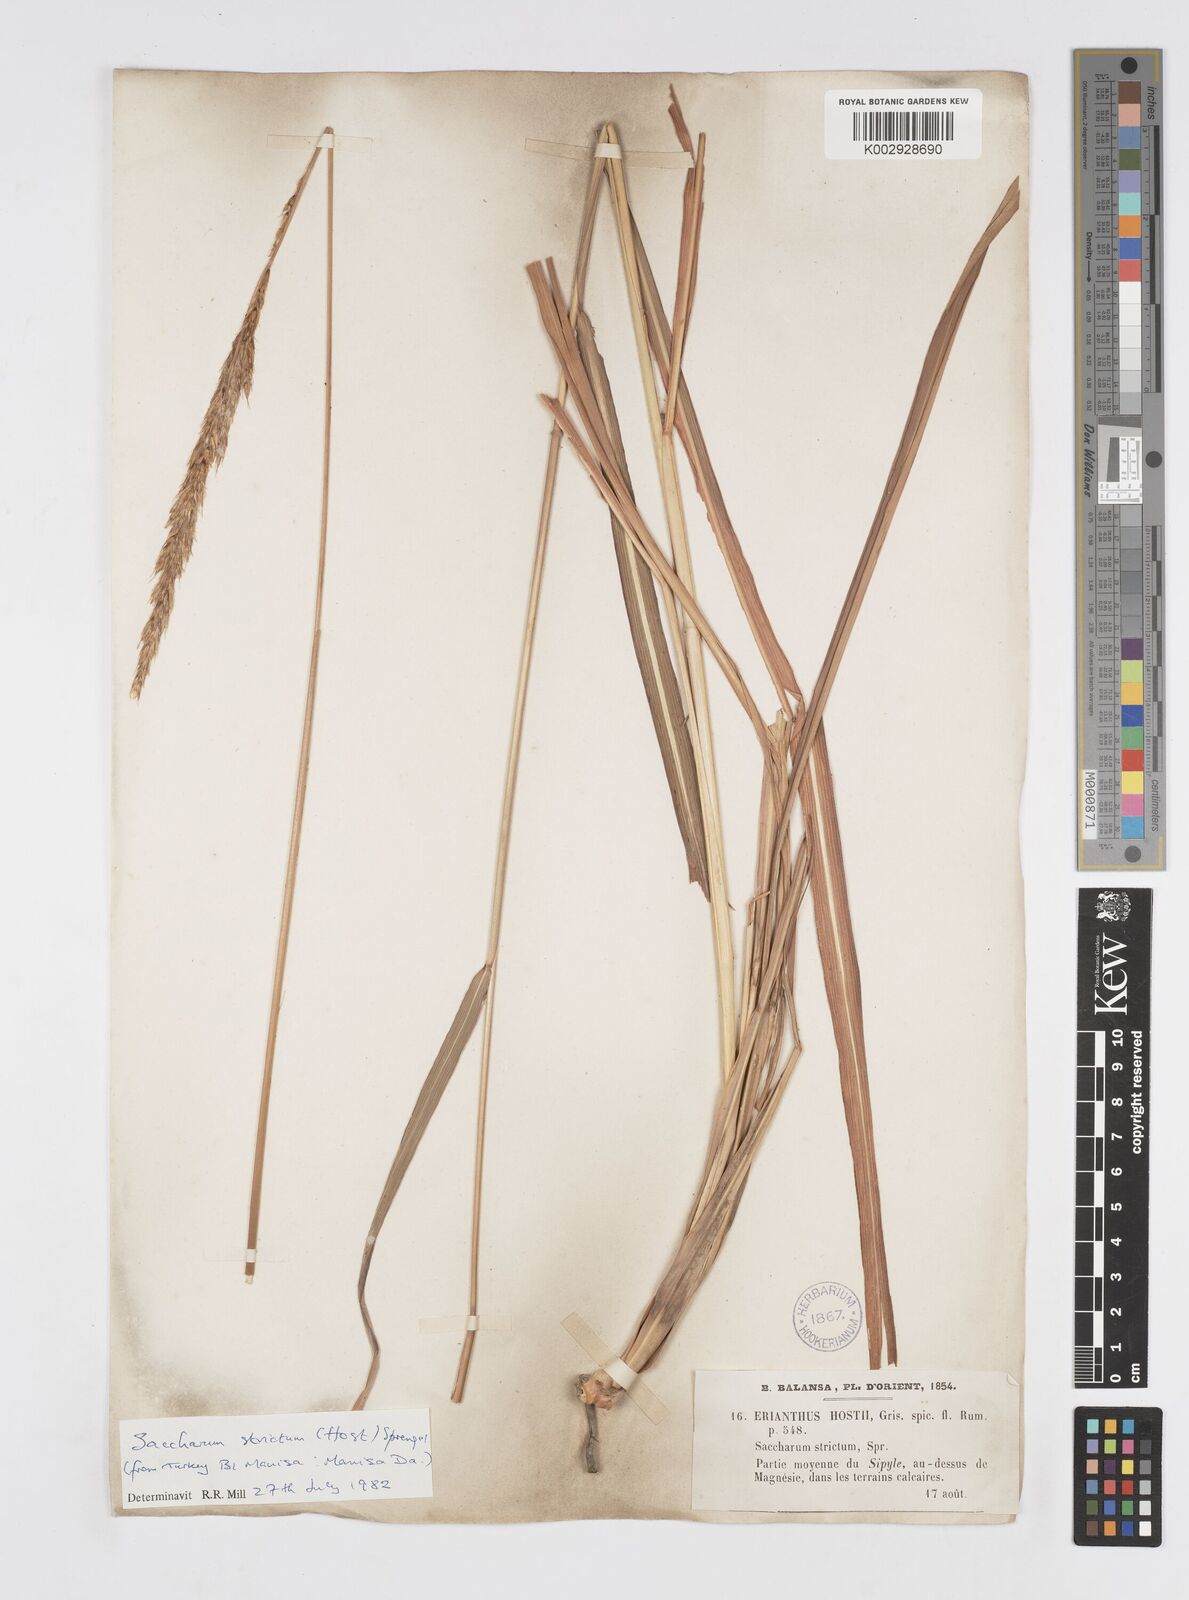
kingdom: Plantae
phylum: Tracheophyta
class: Liliopsida
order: Poales
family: Poaceae
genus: Tripidium
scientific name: Tripidium strictum
